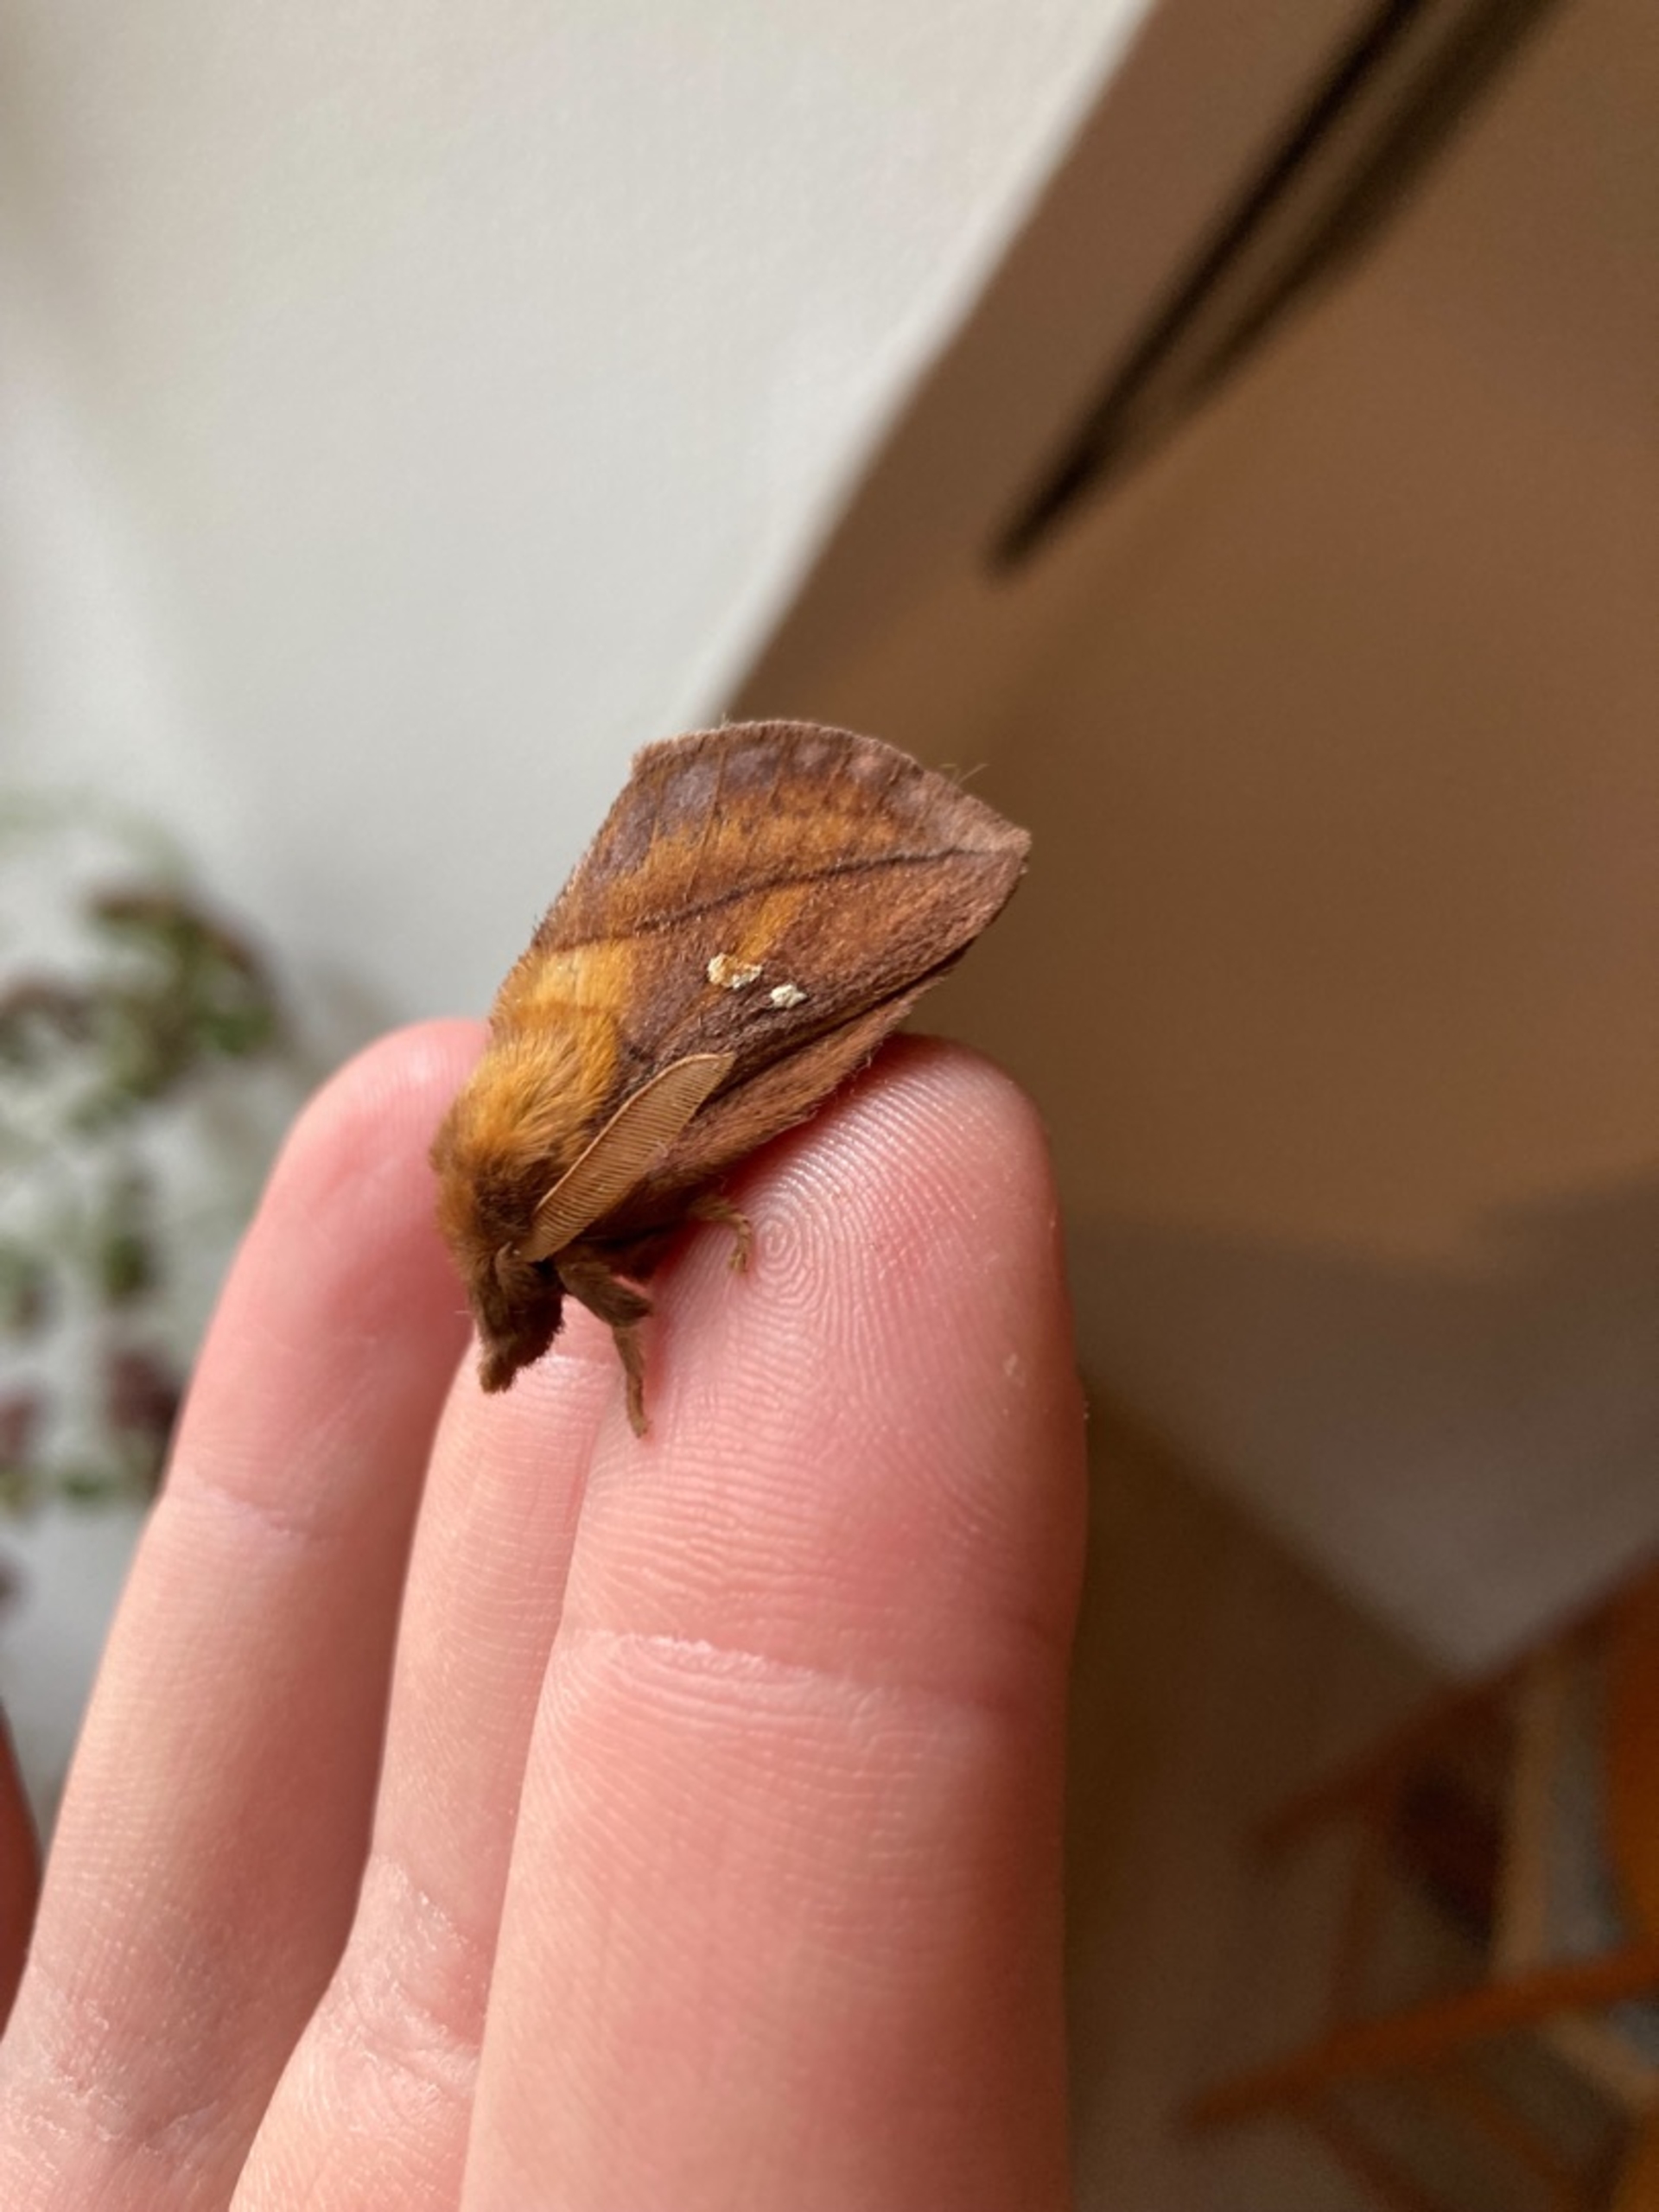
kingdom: Animalia
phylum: Arthropoda
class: Insecta
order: Lepidoptera
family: Lasiocampidae
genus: Euthrix
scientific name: Euthrix potatoria
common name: Græsspinder
